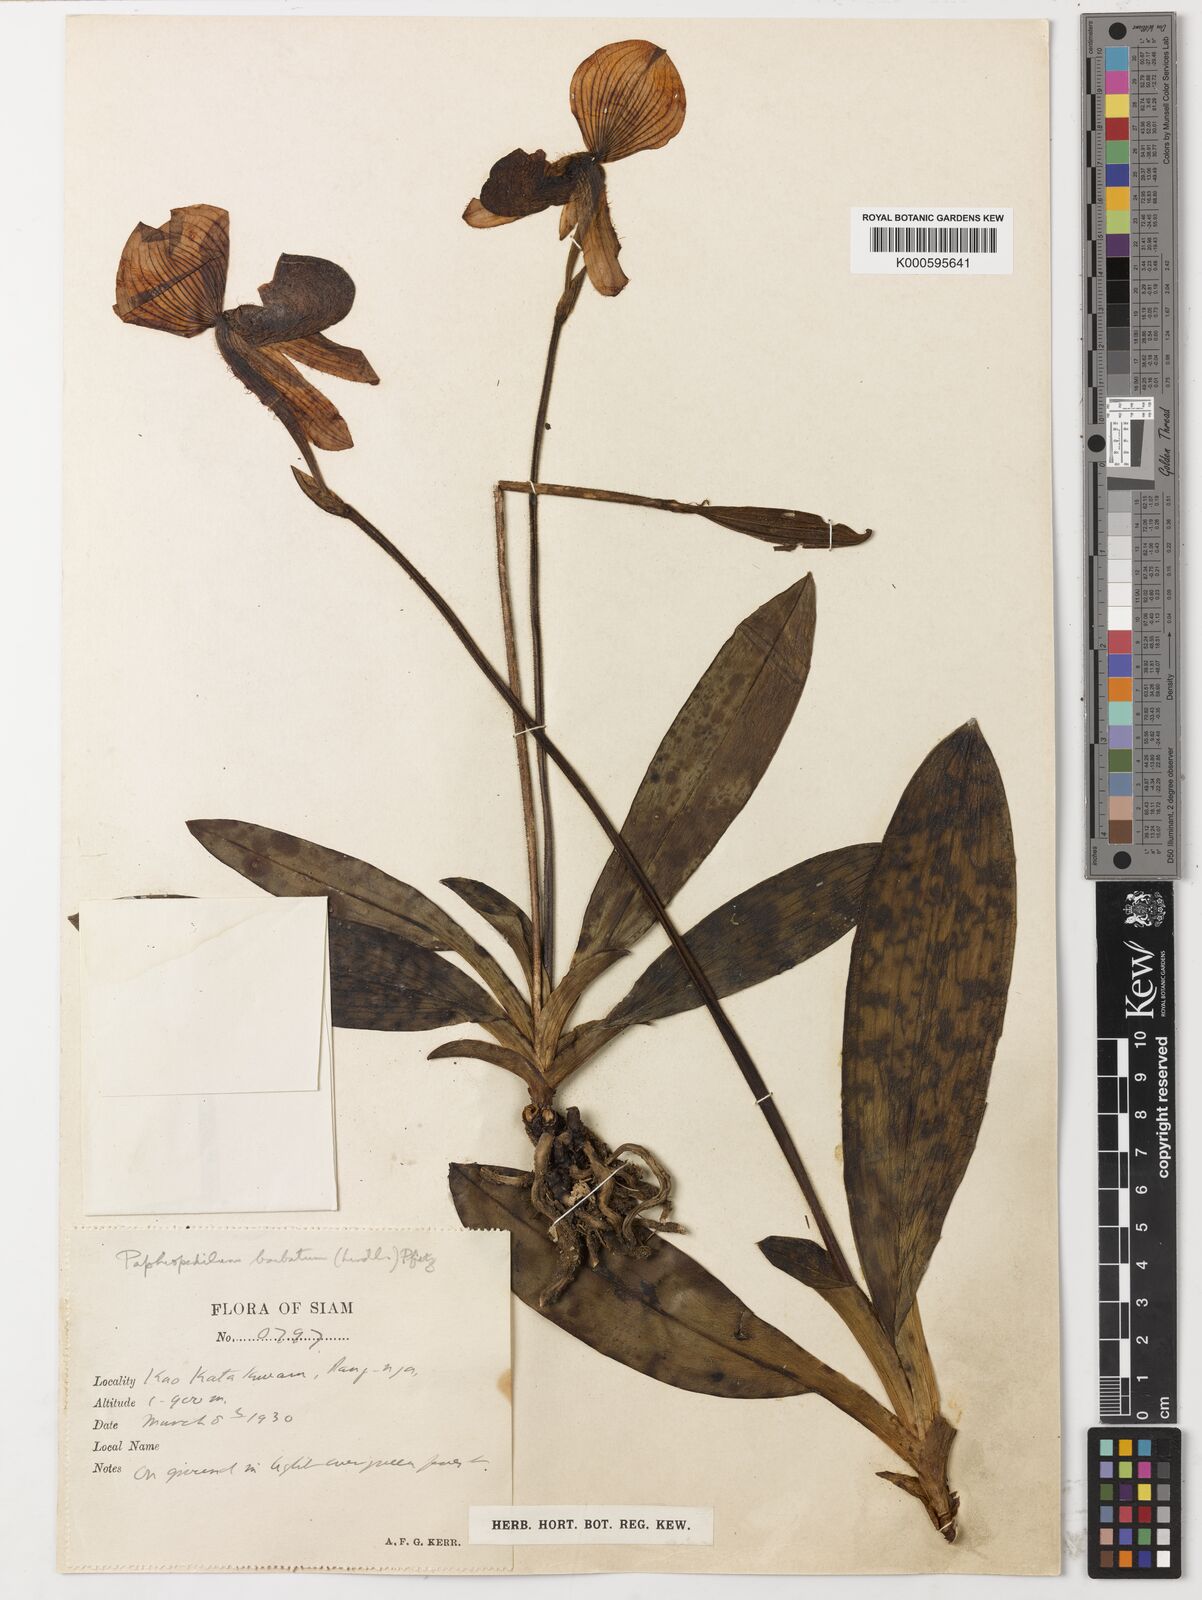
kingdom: Plantae
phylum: Tracheophyta
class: Liliopsida
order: Asparagales
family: Orchidaceae
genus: Paphiopedilum
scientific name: Paphiopedilum callosum
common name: Callus paphiopedilum
